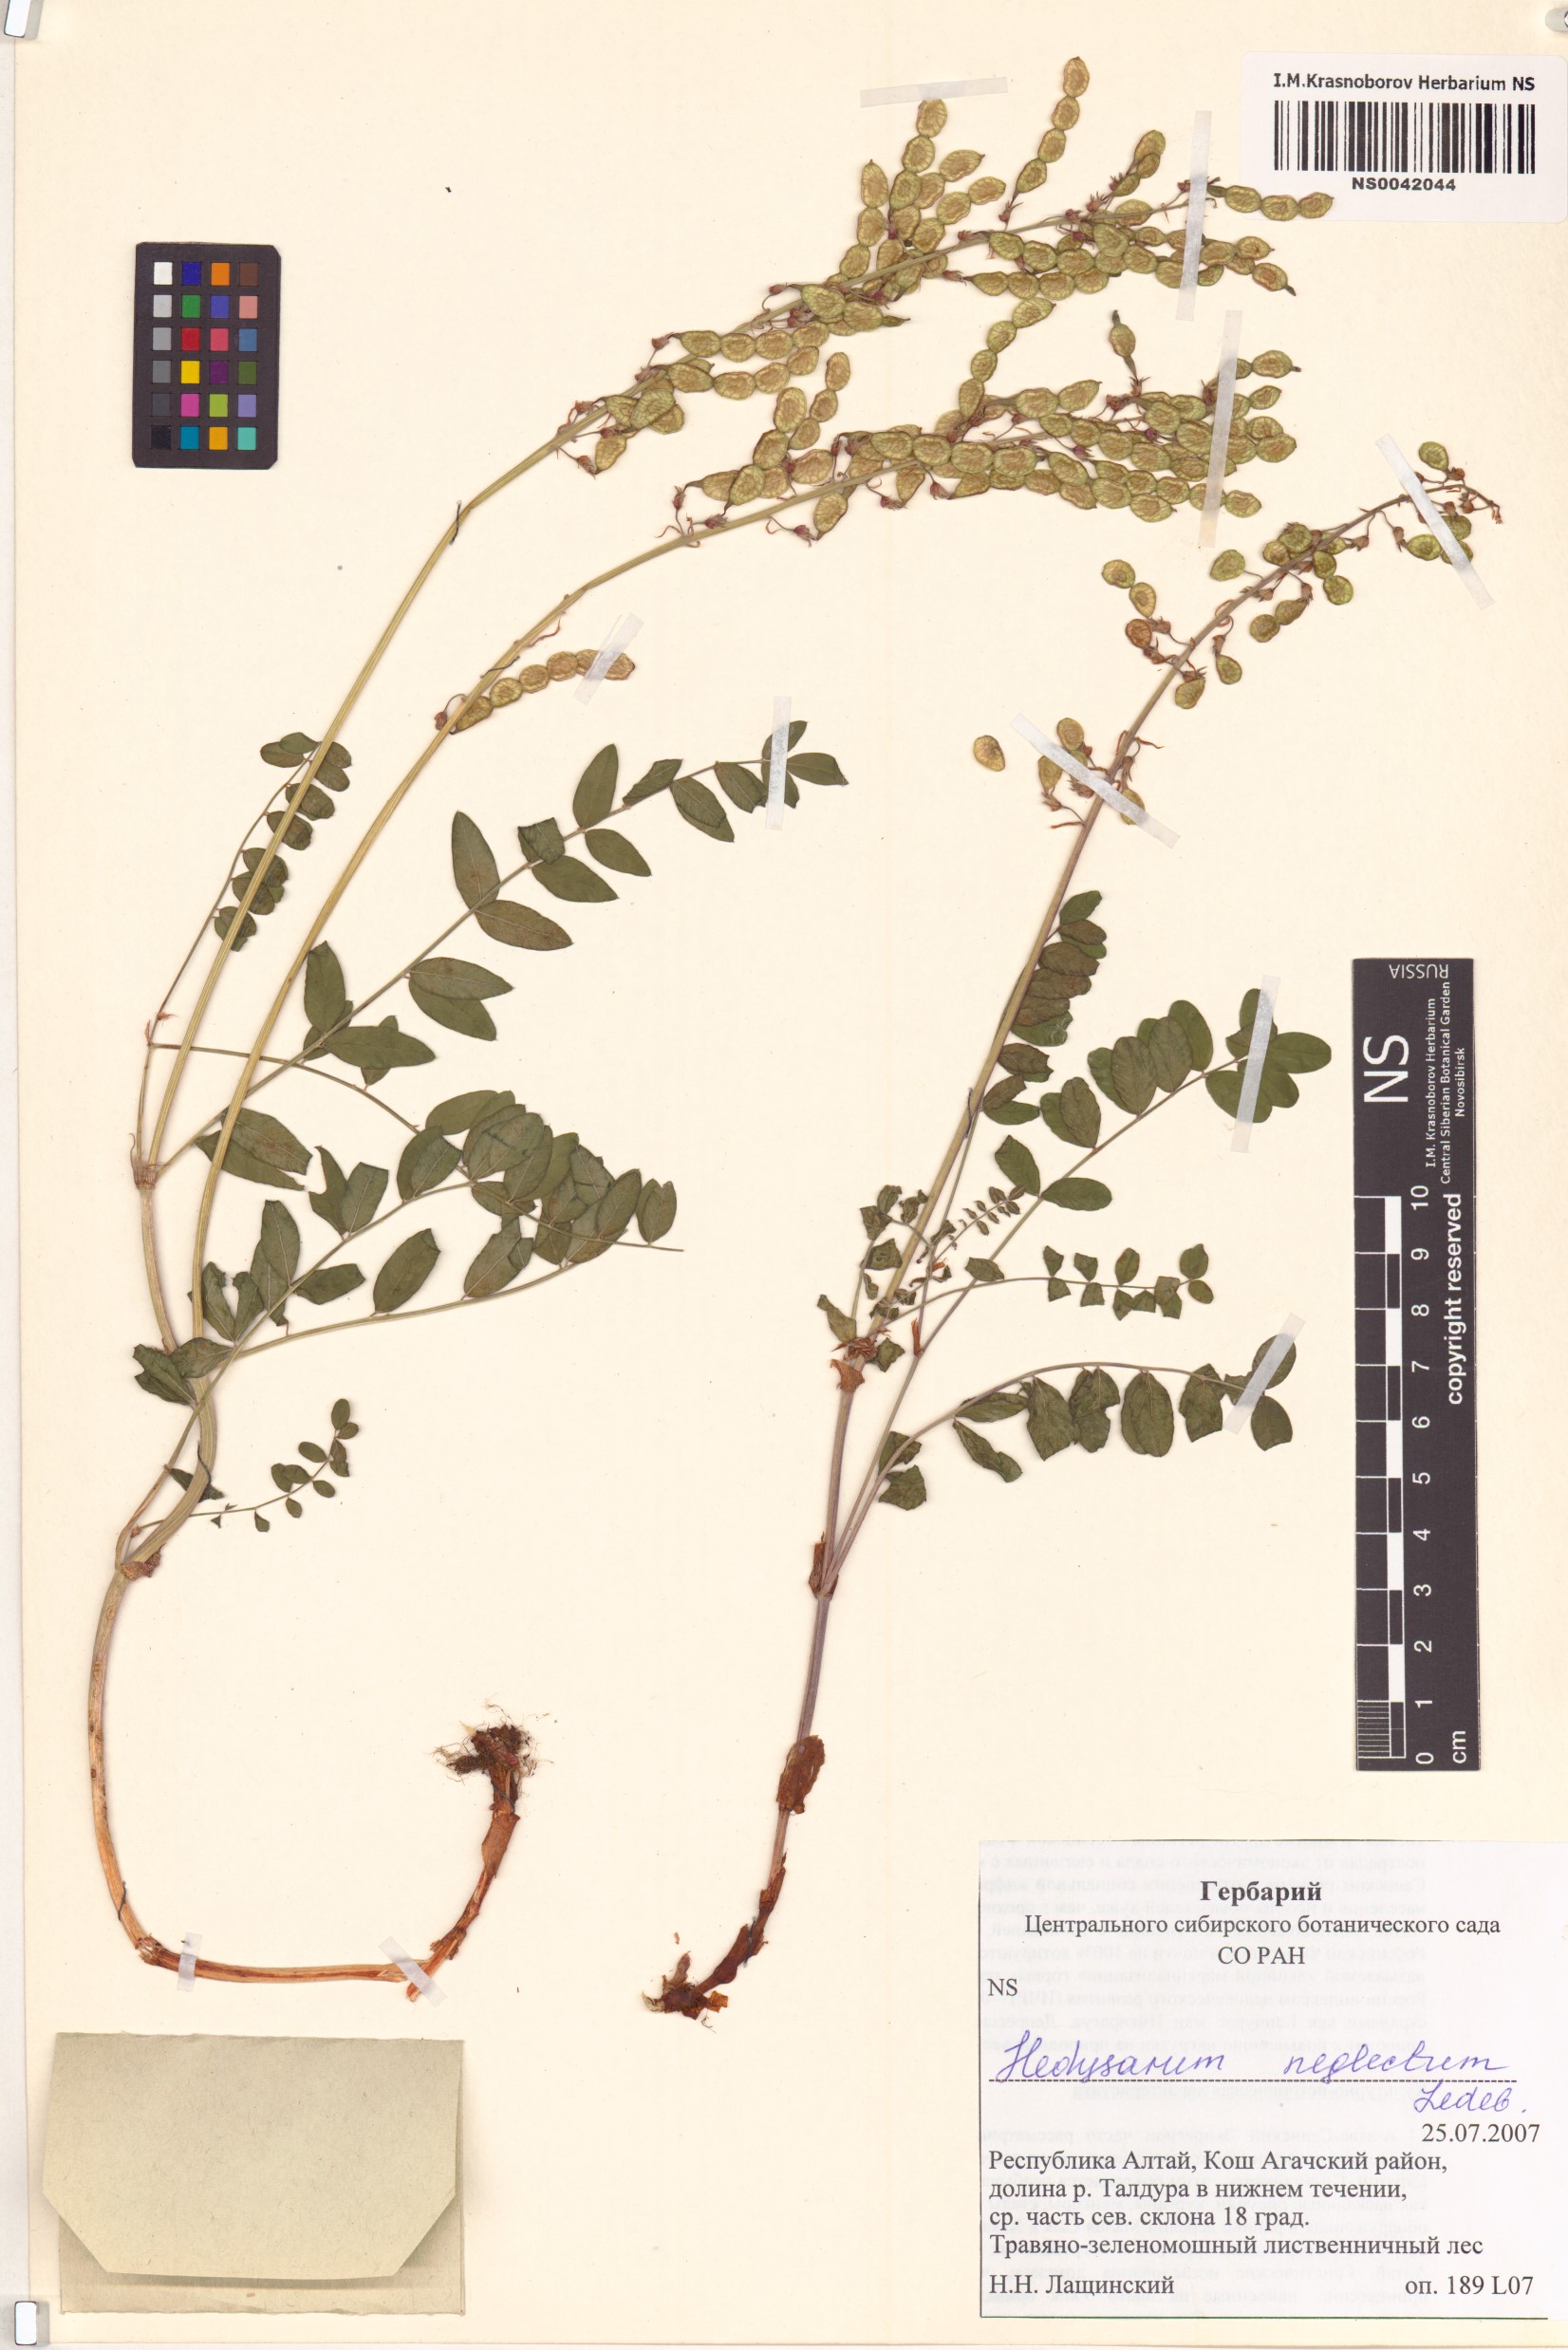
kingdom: Plantae
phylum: Tracheophyta
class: Magnoliopsida
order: Fabales
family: Fabaceae
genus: Hedysarum
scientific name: Hedysarum neglectum
